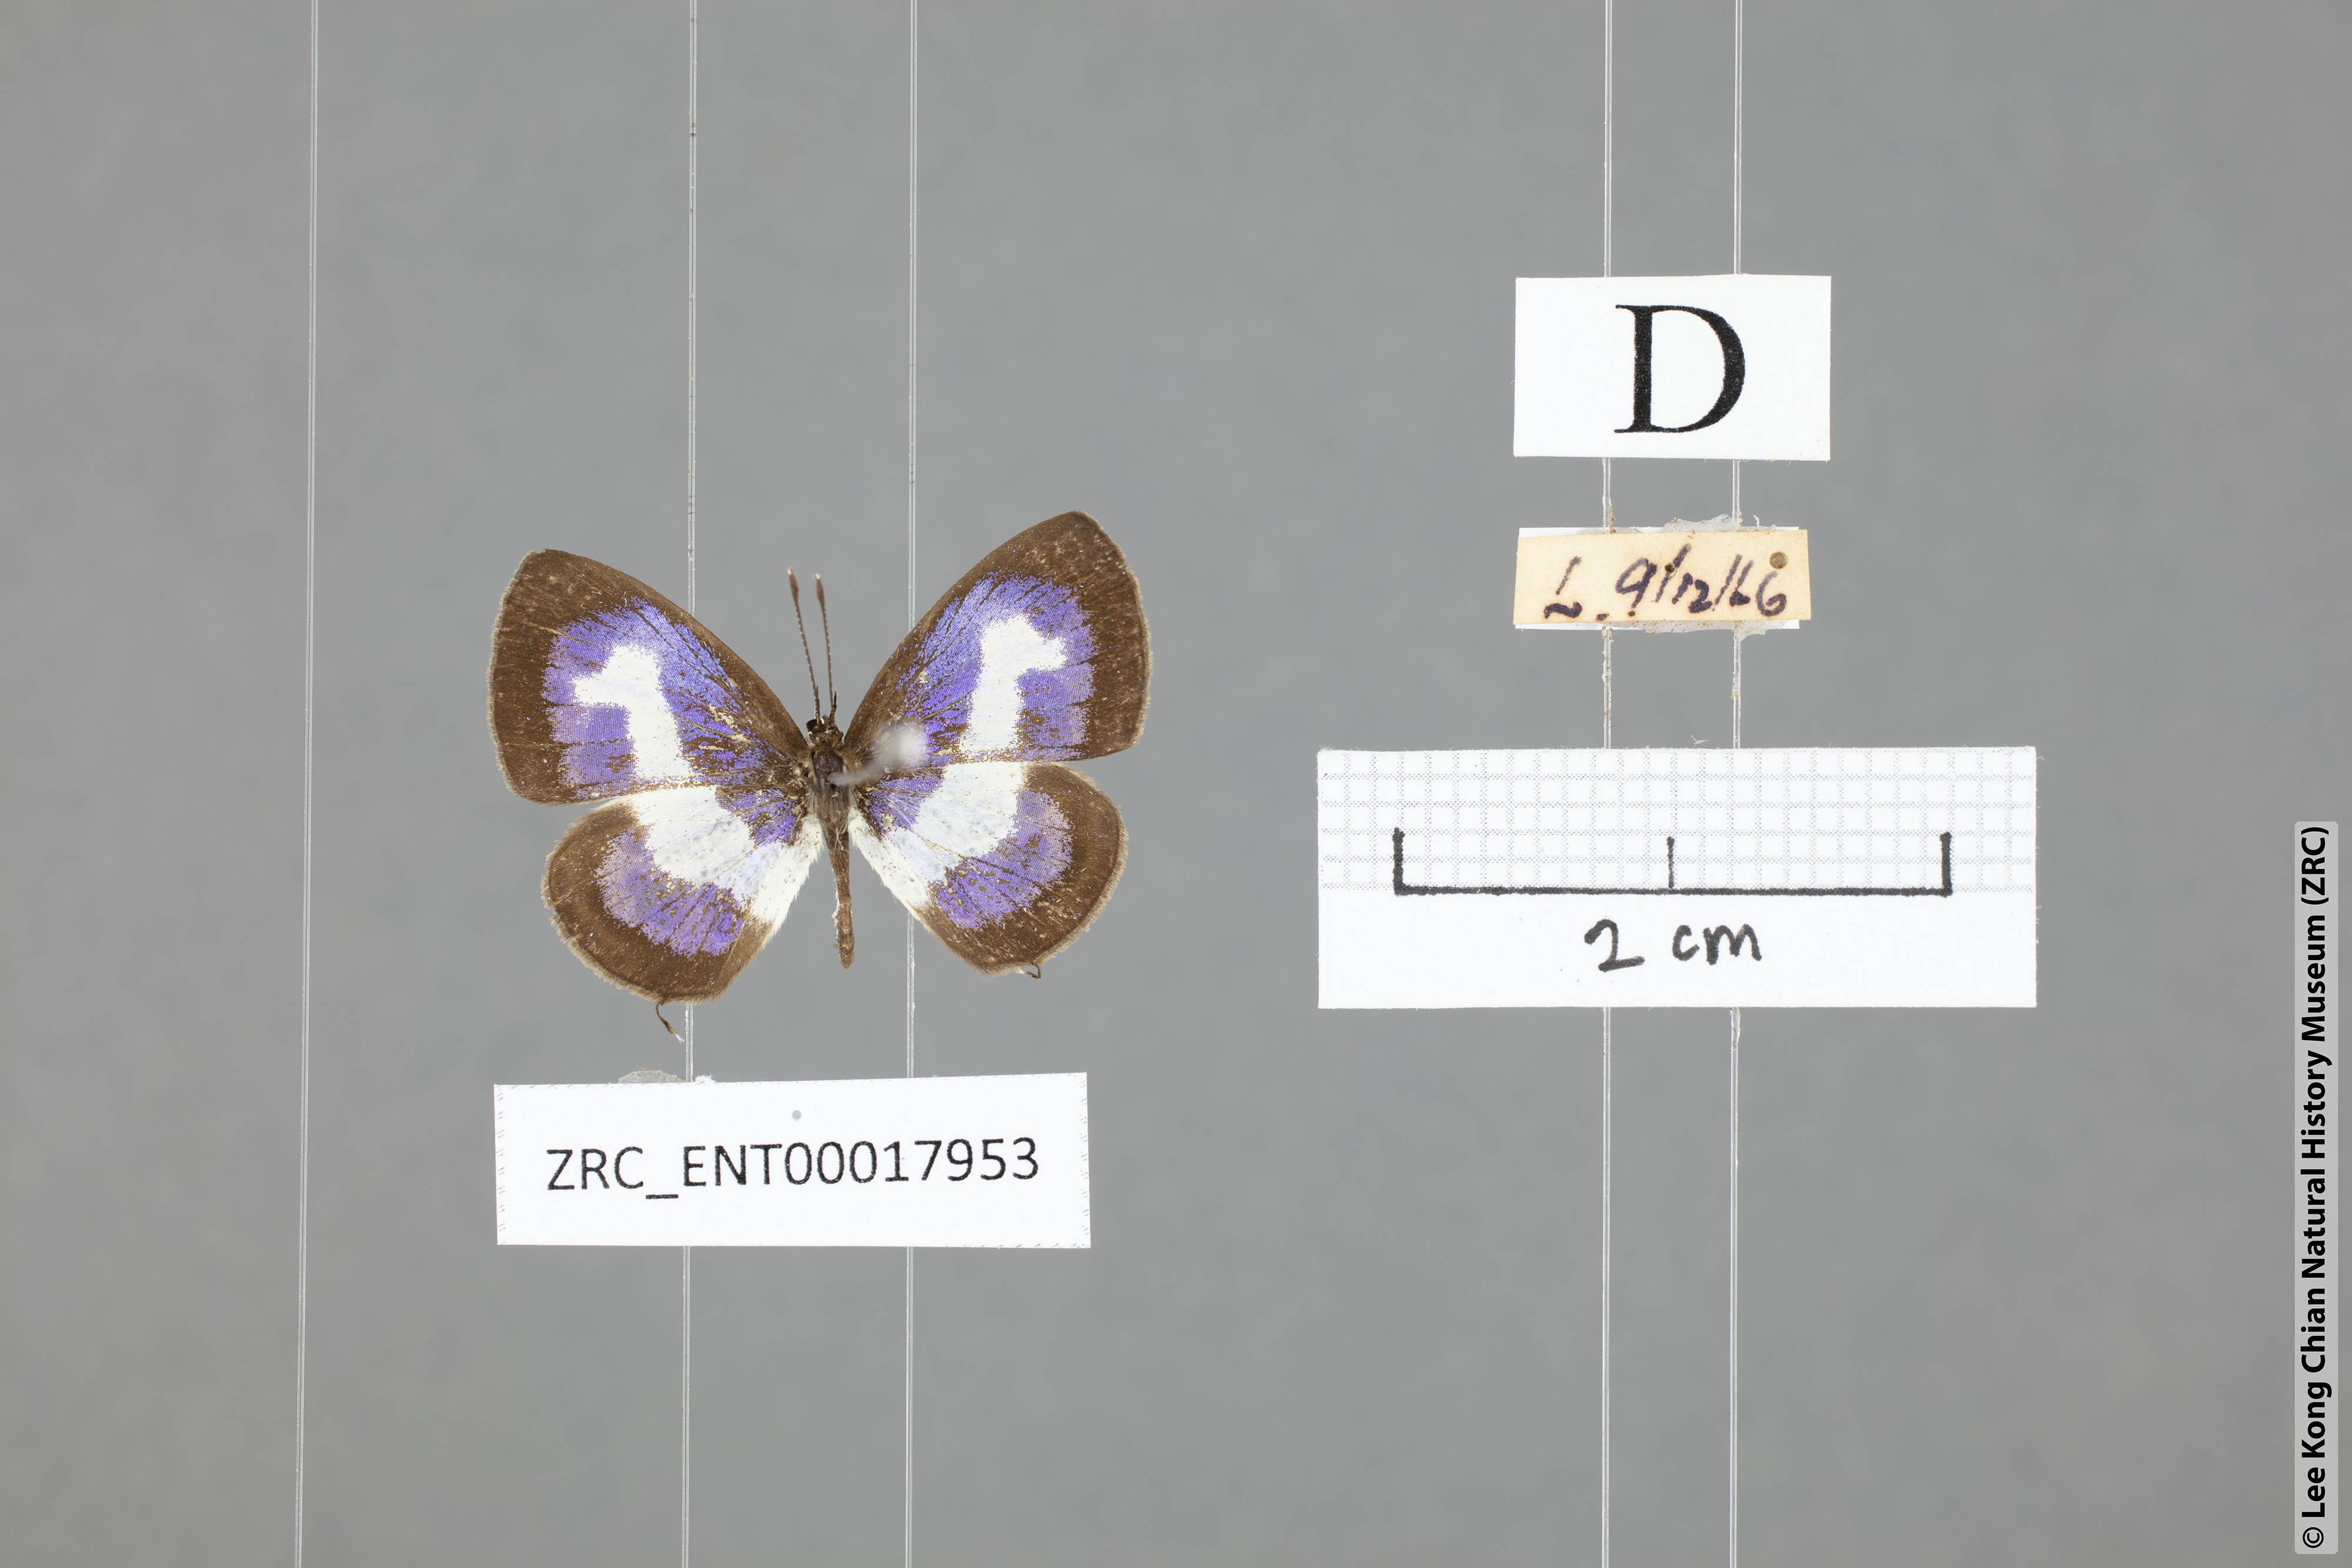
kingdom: Animalia
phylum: Arthropoda
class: Insecta
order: Lepidoptera
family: Lycaenidae
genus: Discolampa
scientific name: Discolampa ethion
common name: Banded blue pierrot
